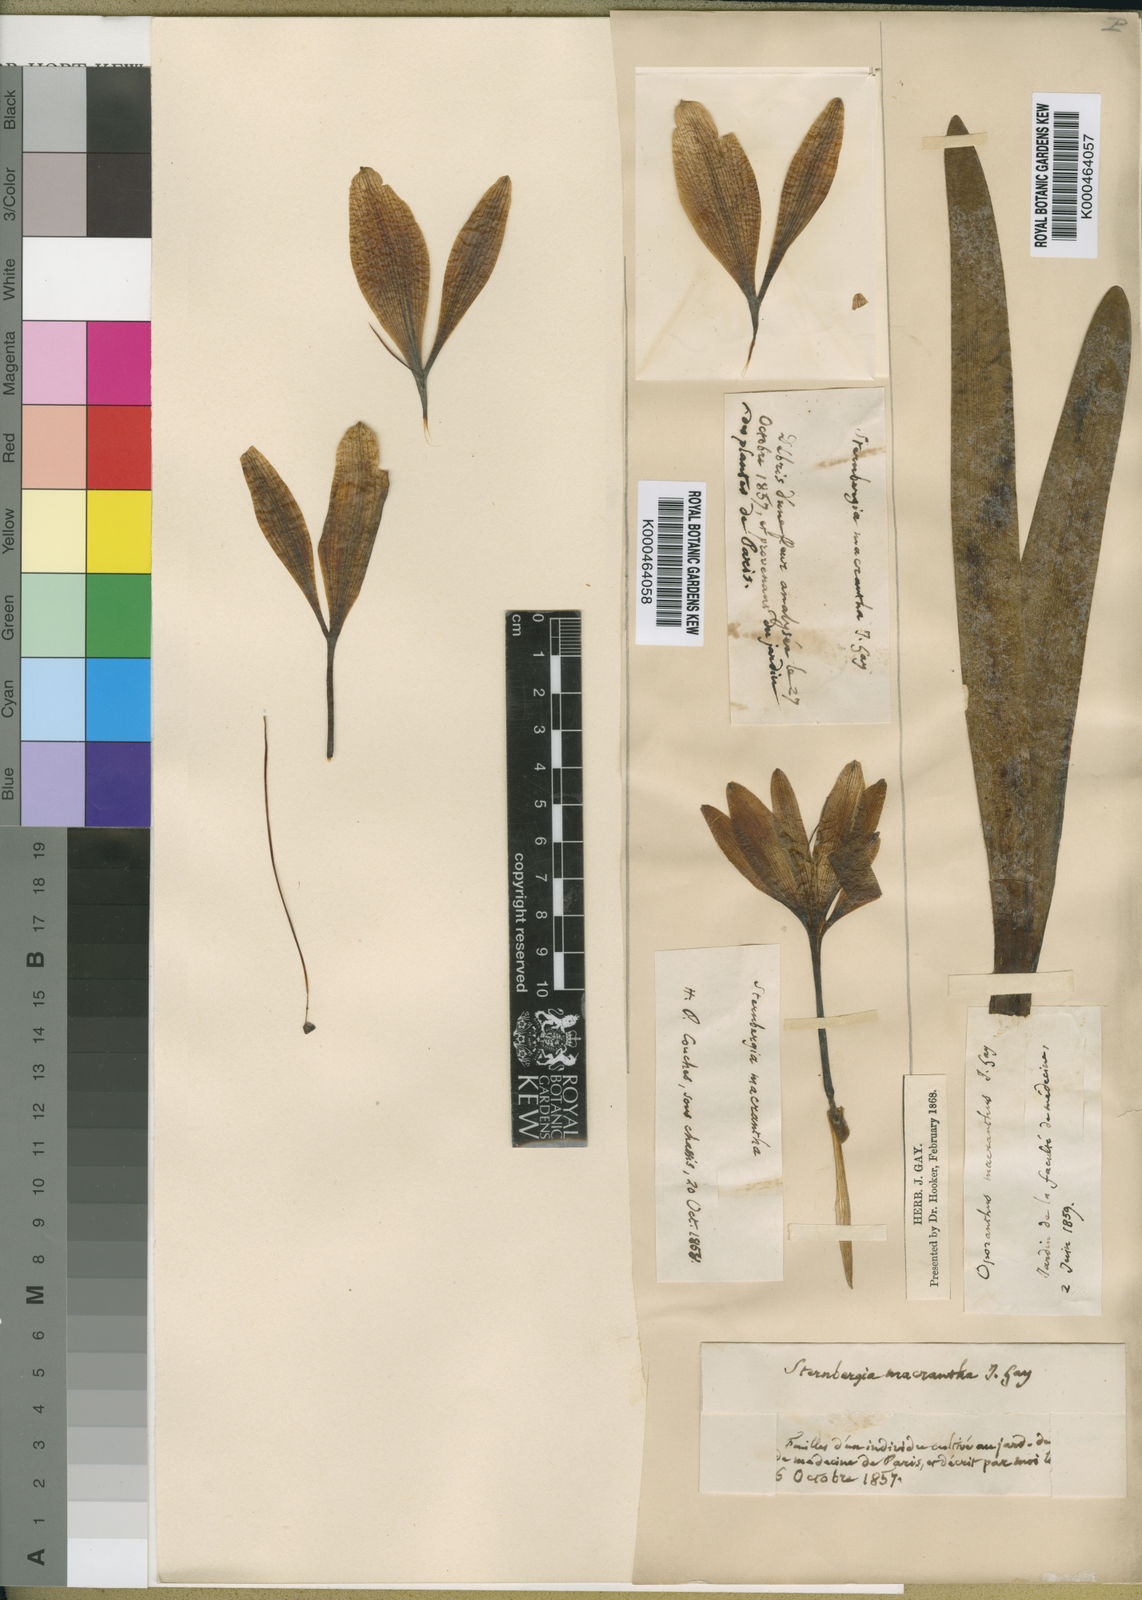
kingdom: Plantae
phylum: Tracheophyta
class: Liliopsida
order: Asparagales
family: Amaryllidaceae
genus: Sternbergia
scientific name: Sternbergia
